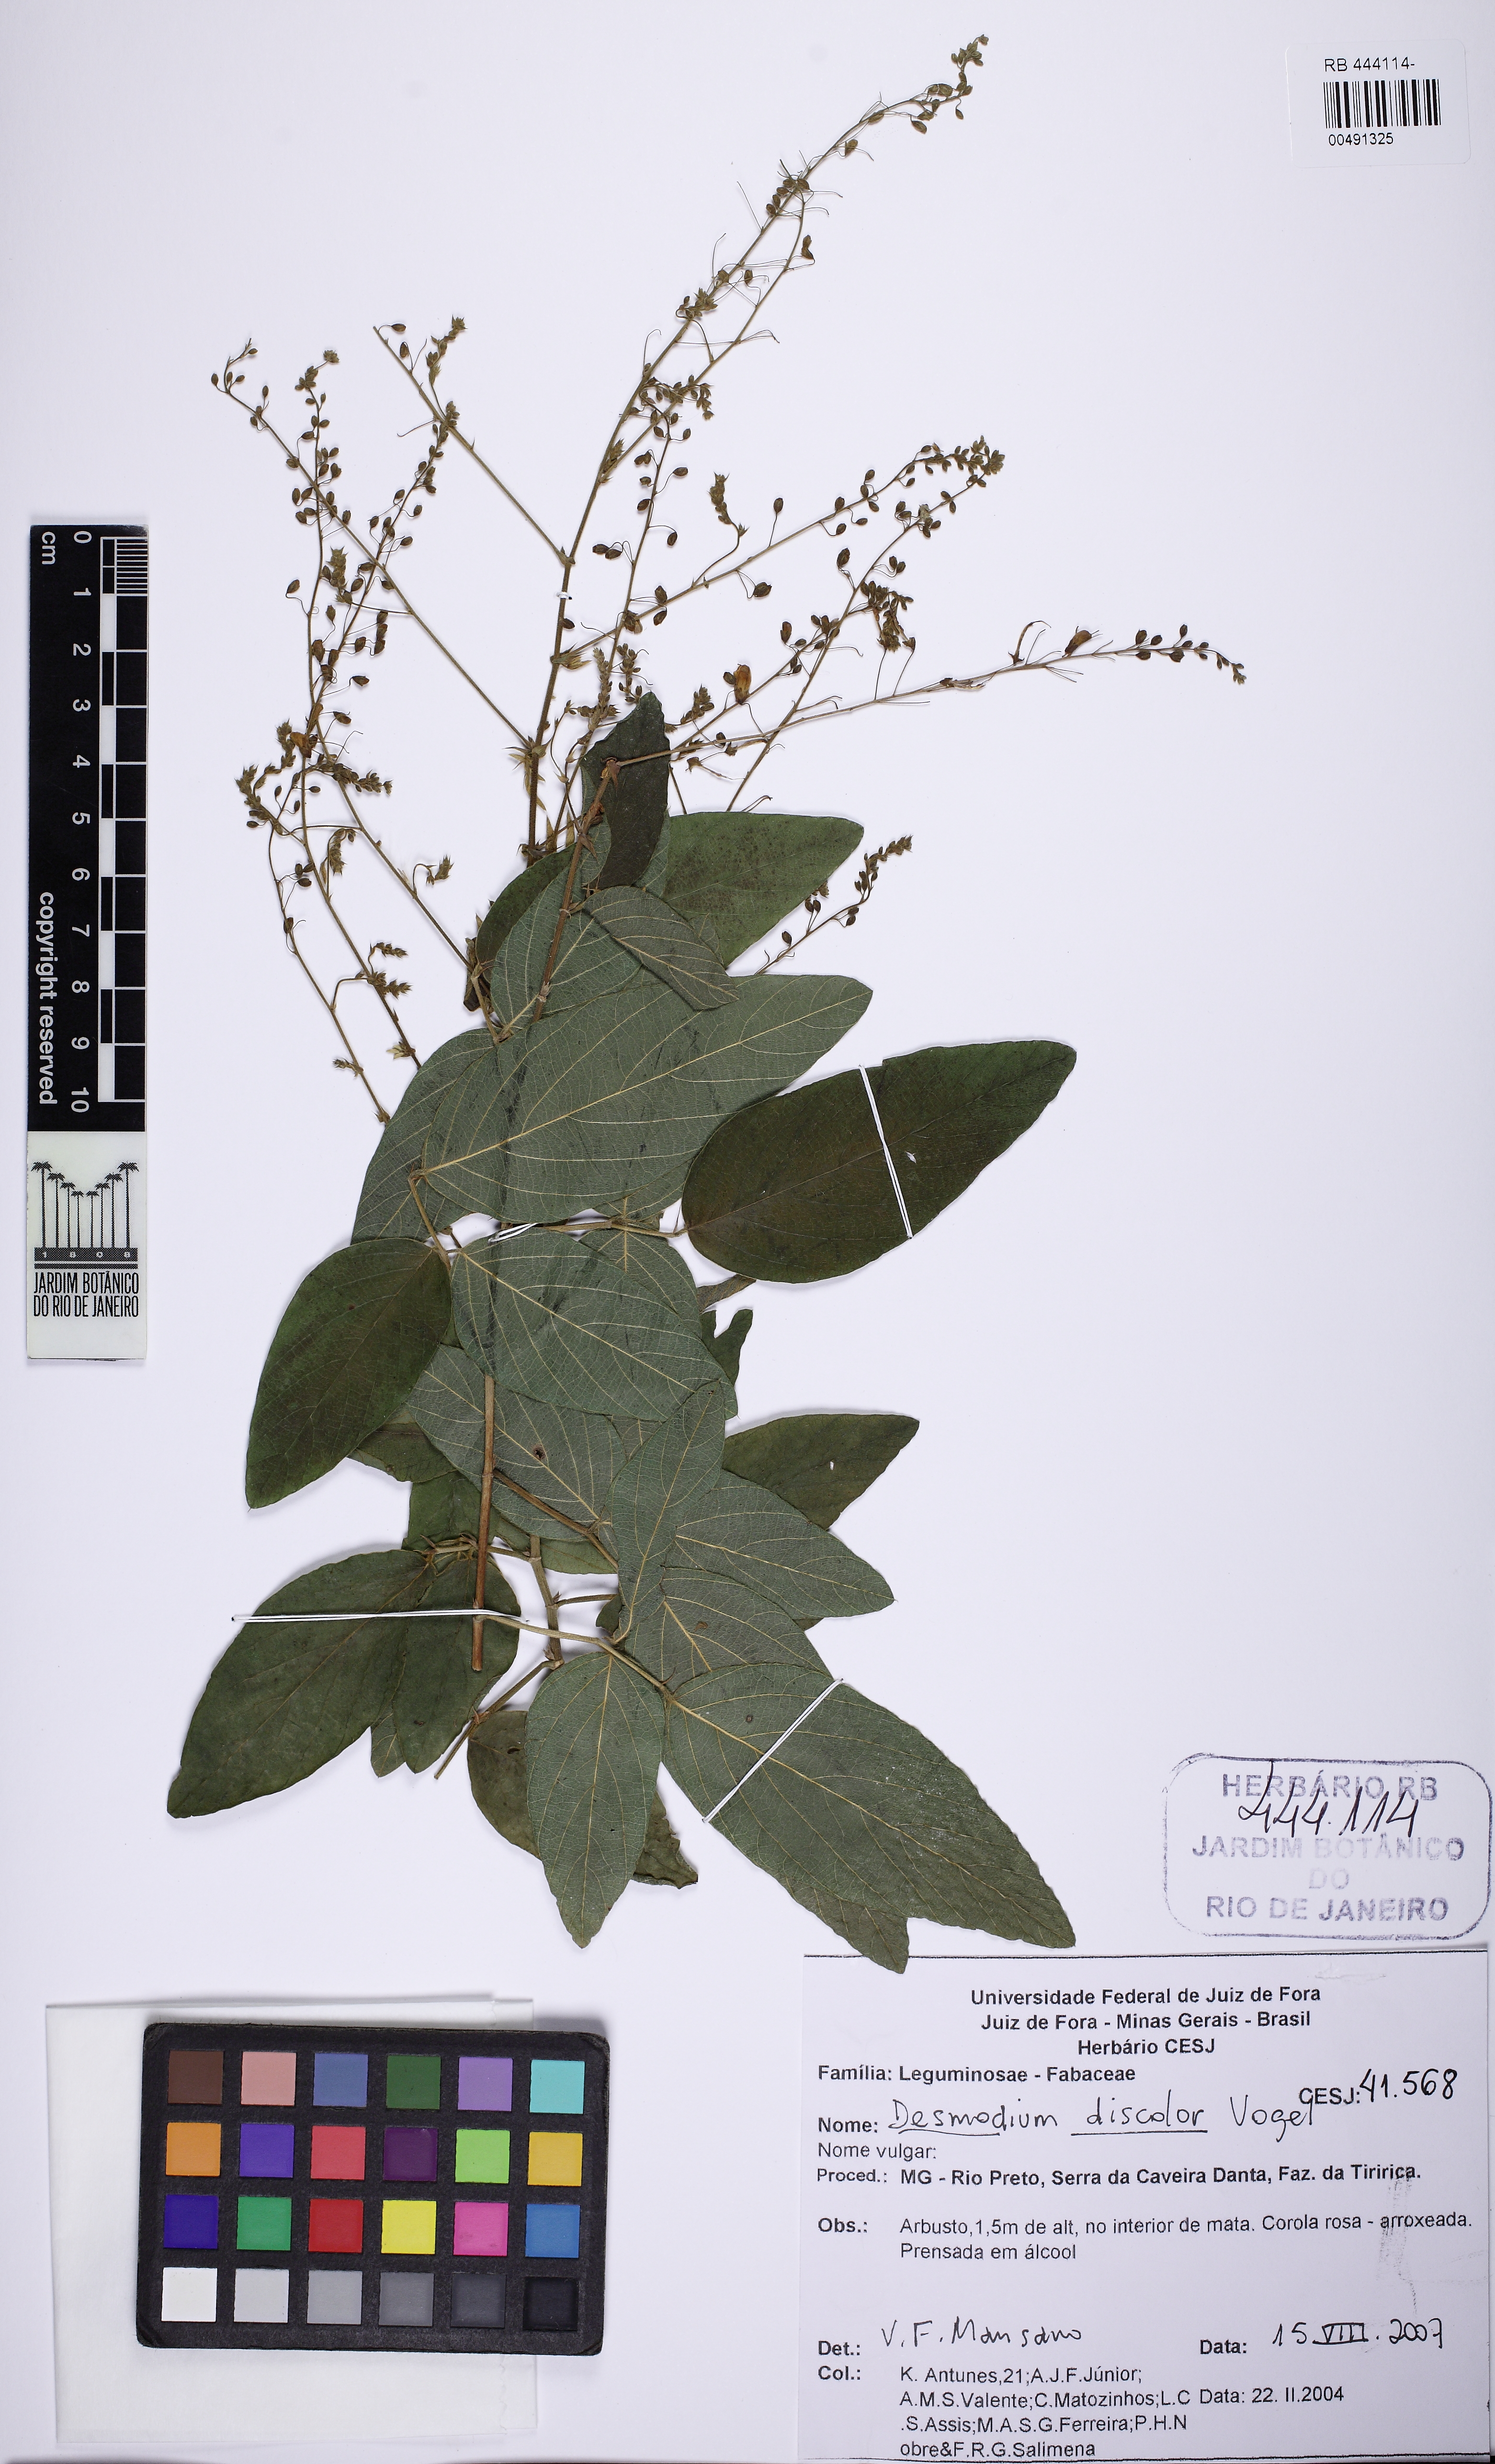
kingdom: Plantae
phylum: Tracheophyta
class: Magnoliopsida
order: Fabales
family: Fabaceae
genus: Desmodium
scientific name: Desmodium subsecundum
